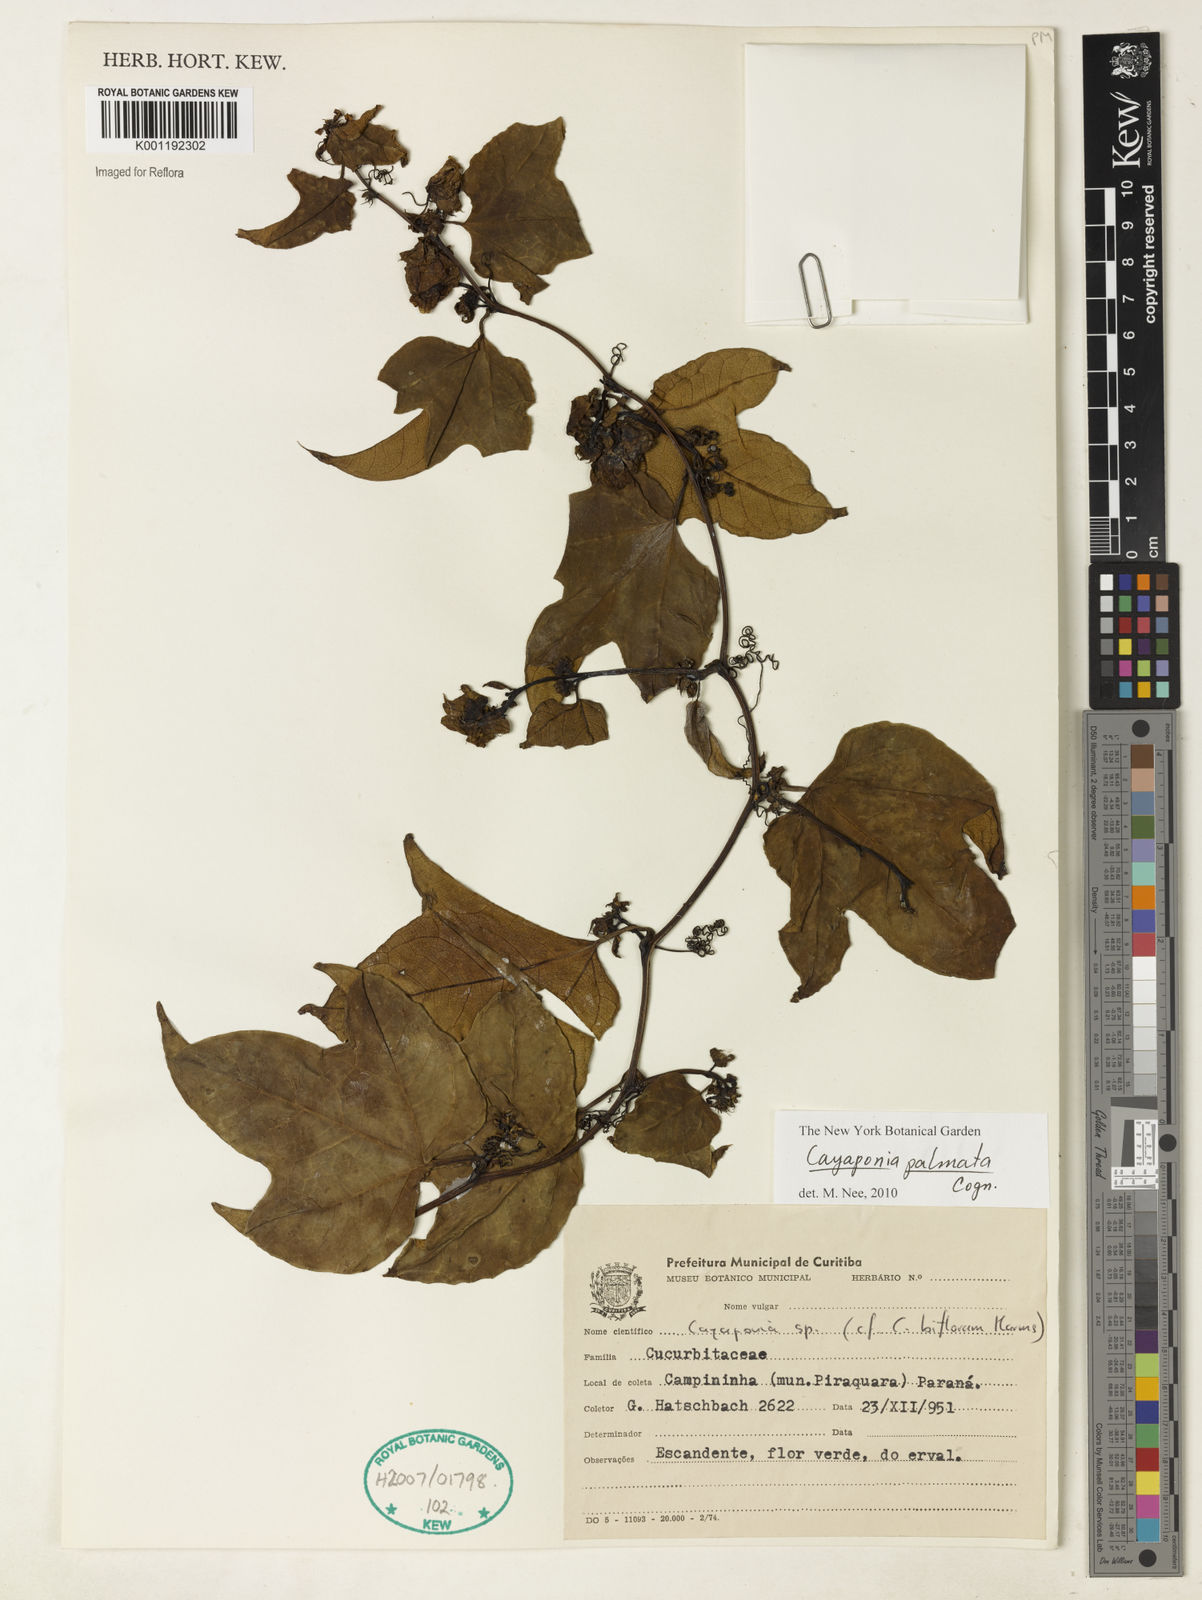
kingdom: Plantae
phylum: Tracheophyta
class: Magnoliopsida
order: Cucurbitales
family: Cucurbitaceae
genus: Cayaponia
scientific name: Cayaponia palmata
